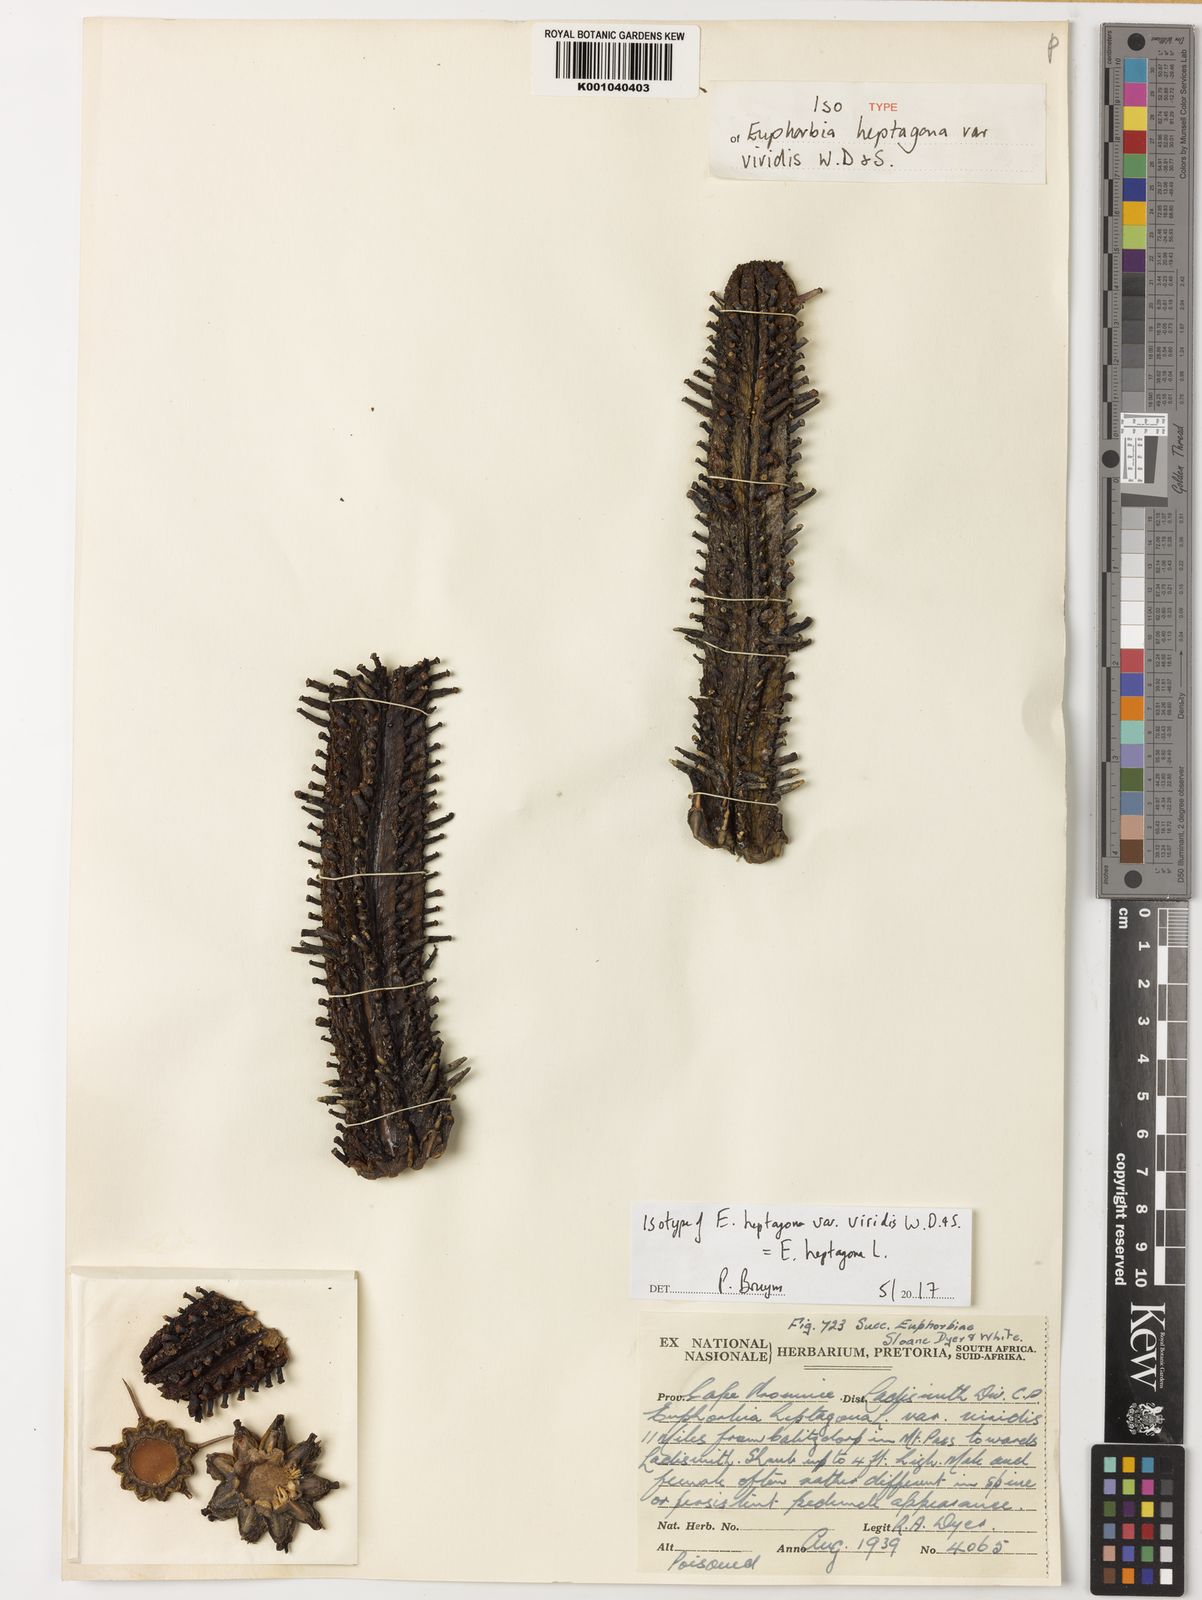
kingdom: Plantae
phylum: Tracheophyta
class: Magnoliopsida
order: Malpighiales
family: Euphorbiaceae
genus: Euphorbia
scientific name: Euphorbia heptagona
